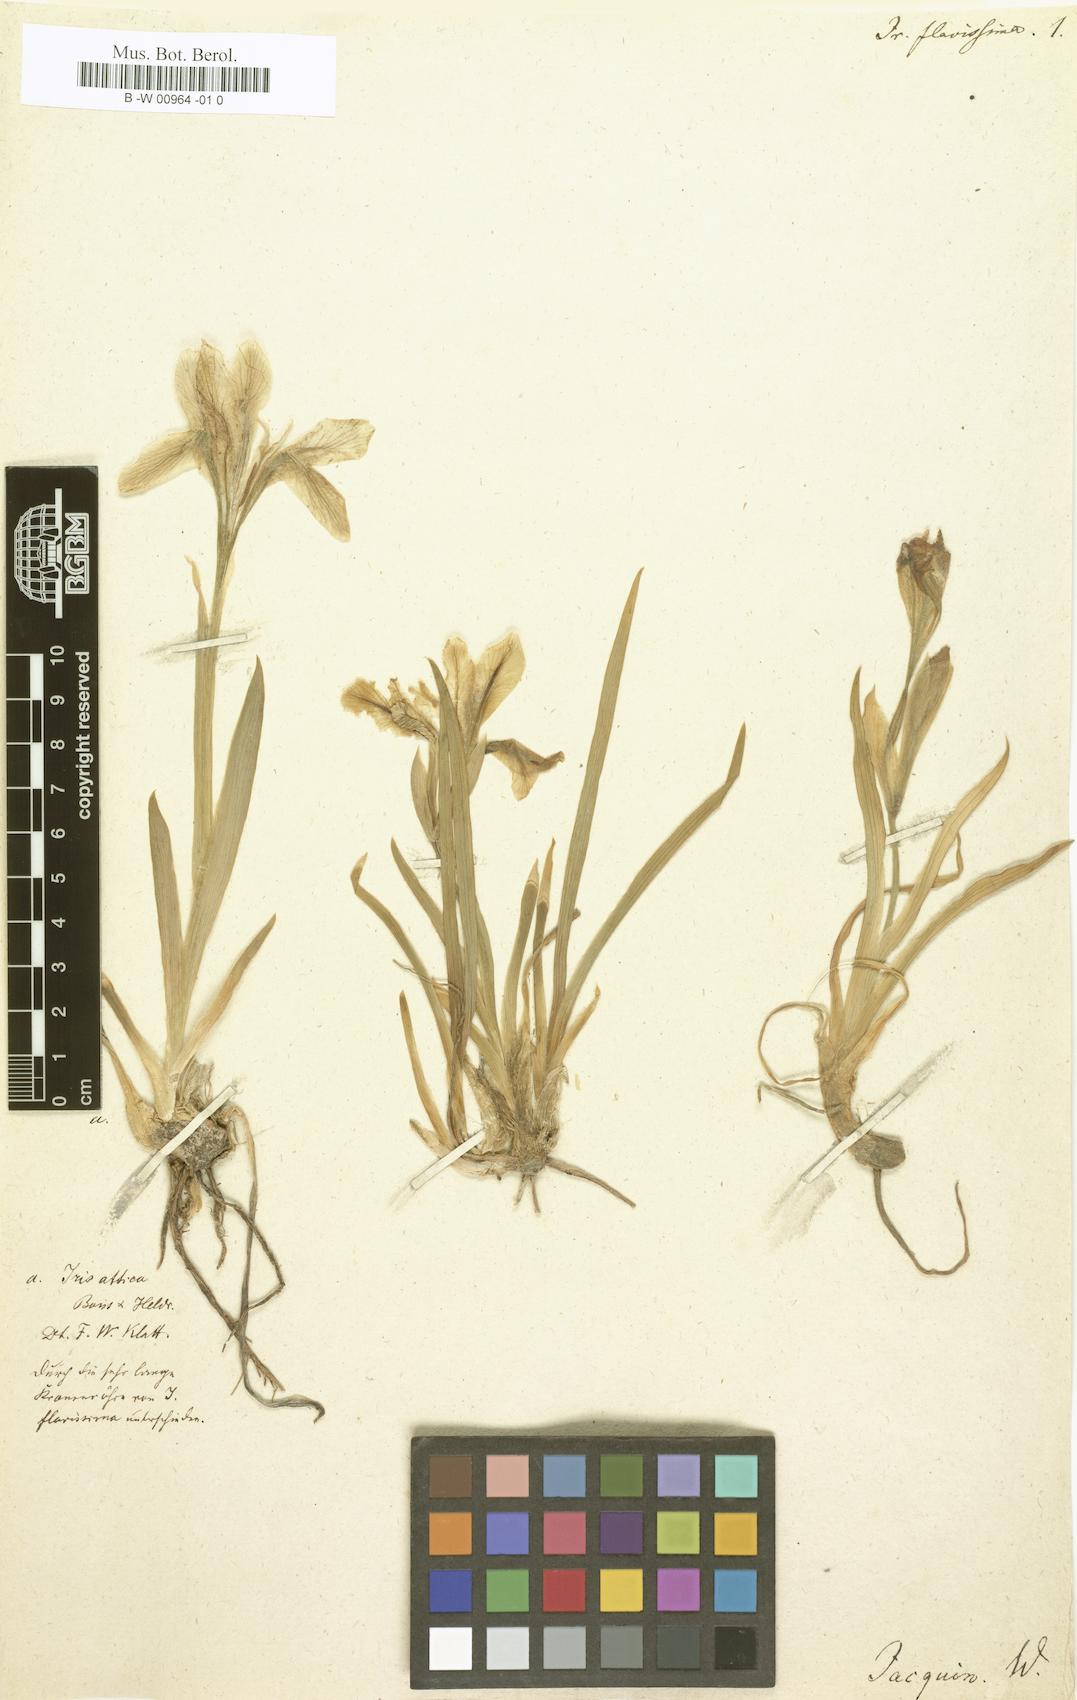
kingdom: Plantae
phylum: Tracheophyta
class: Liliopsida
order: Asparagales
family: Iridaceae
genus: Iris
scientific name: Iris humilis
